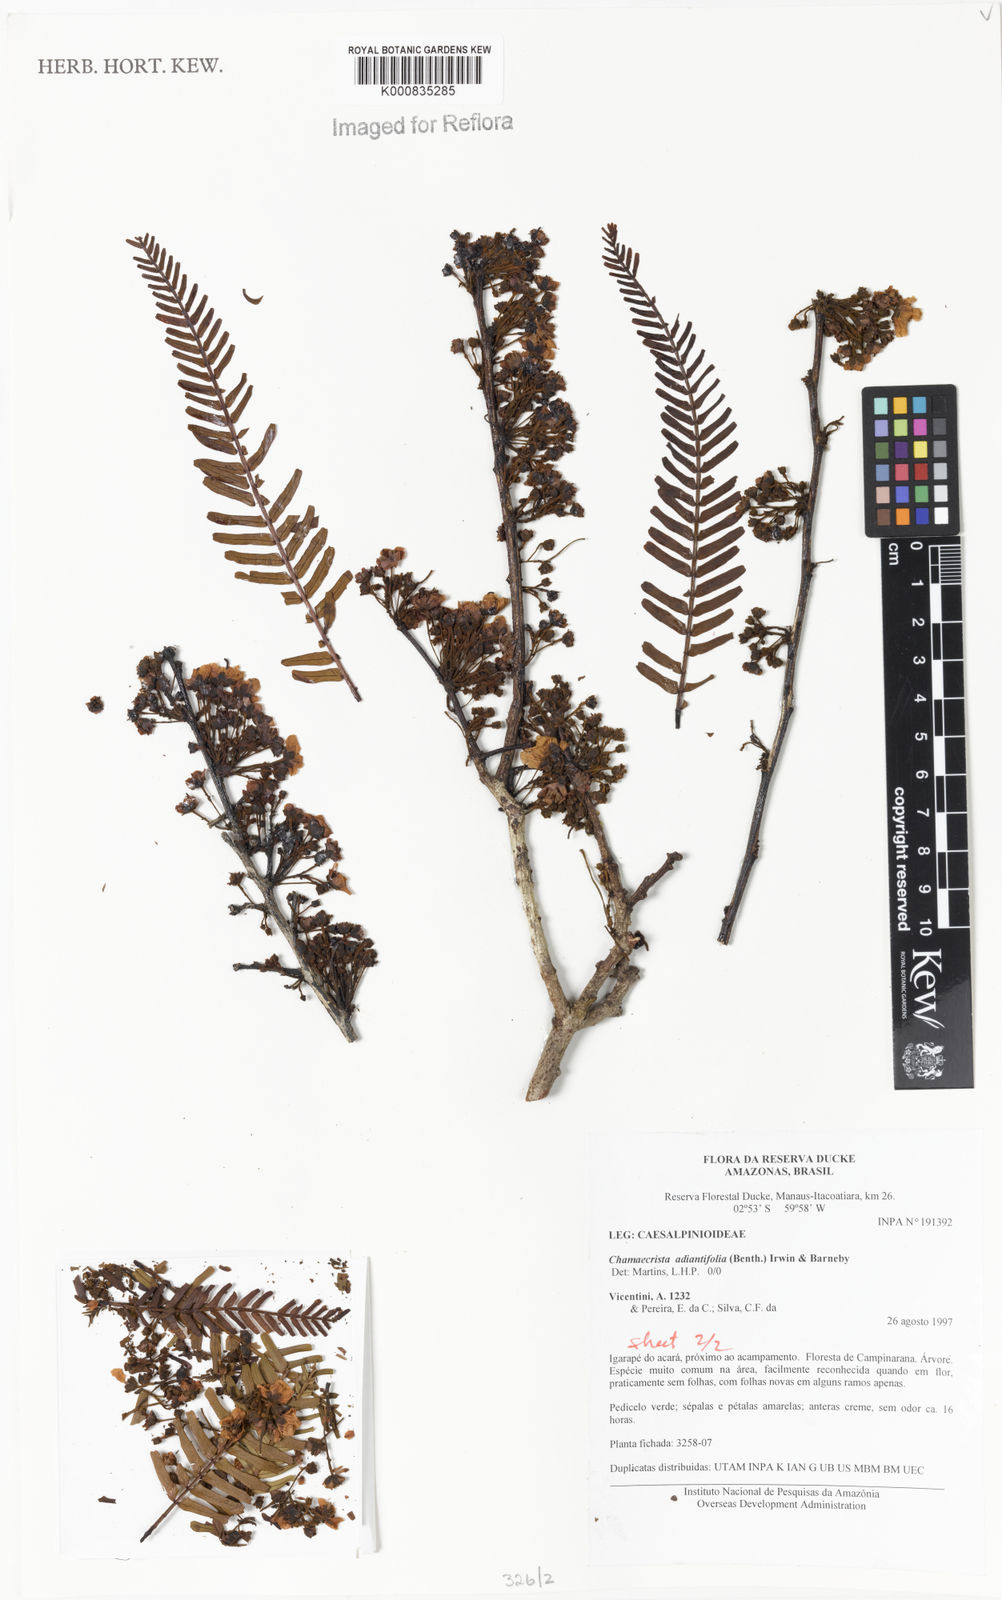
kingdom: Plantae
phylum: Tracheophyta
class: Magnoliopsida
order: Fabales
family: Fabaceae
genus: Chamaecrista
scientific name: Chamaecrista adiantifolia
